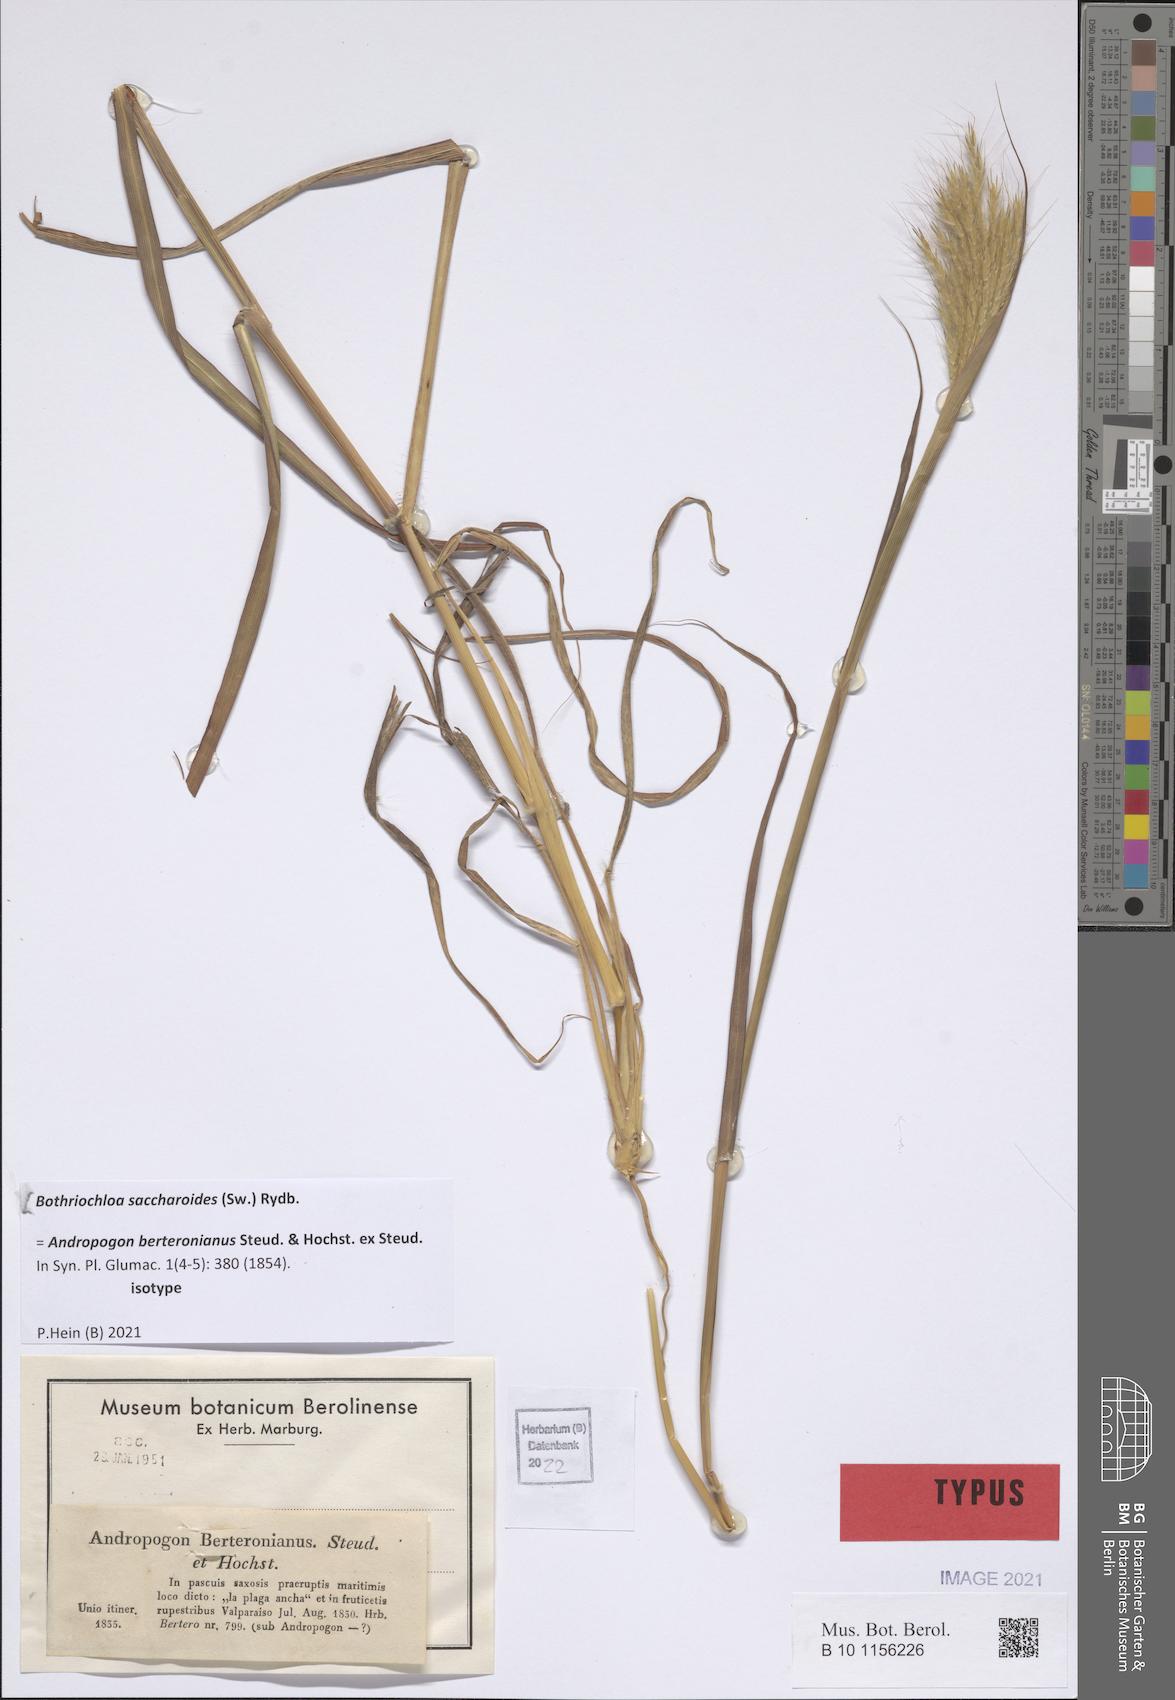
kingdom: Plantae
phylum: Tracheophyta
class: Liliopsida
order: Poales
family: Poaceae
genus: Bothriochloa
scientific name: Bothriochloa saccharoides
